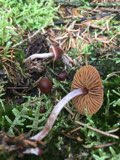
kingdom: Fungi
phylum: Basidiomycota
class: Agaricomycetes
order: Agaricales
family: Cortinariaceae
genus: Cortinarius
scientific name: Cortinarius
